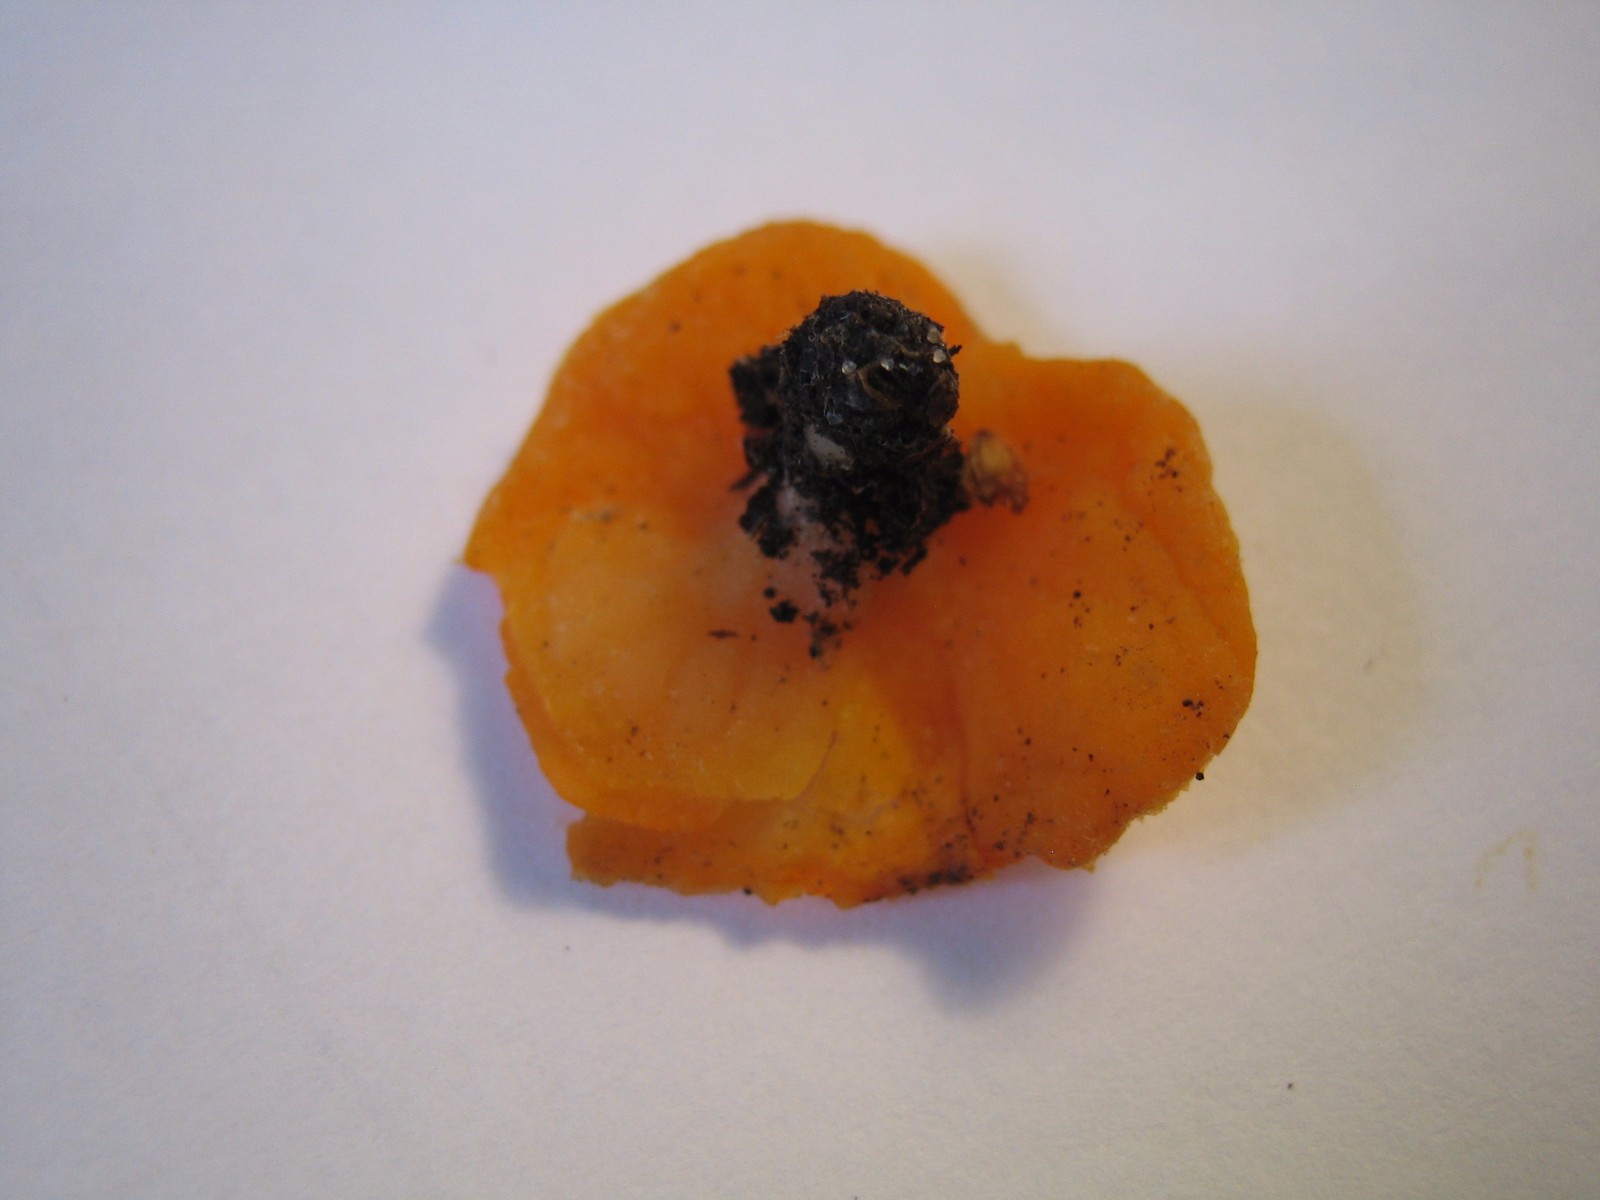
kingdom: Fungi
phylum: Ascomycota
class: Pezizomycetes
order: Pezizales
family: Pyronemataceae
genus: Neottiella
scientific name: Neottiella
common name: mosbæger
